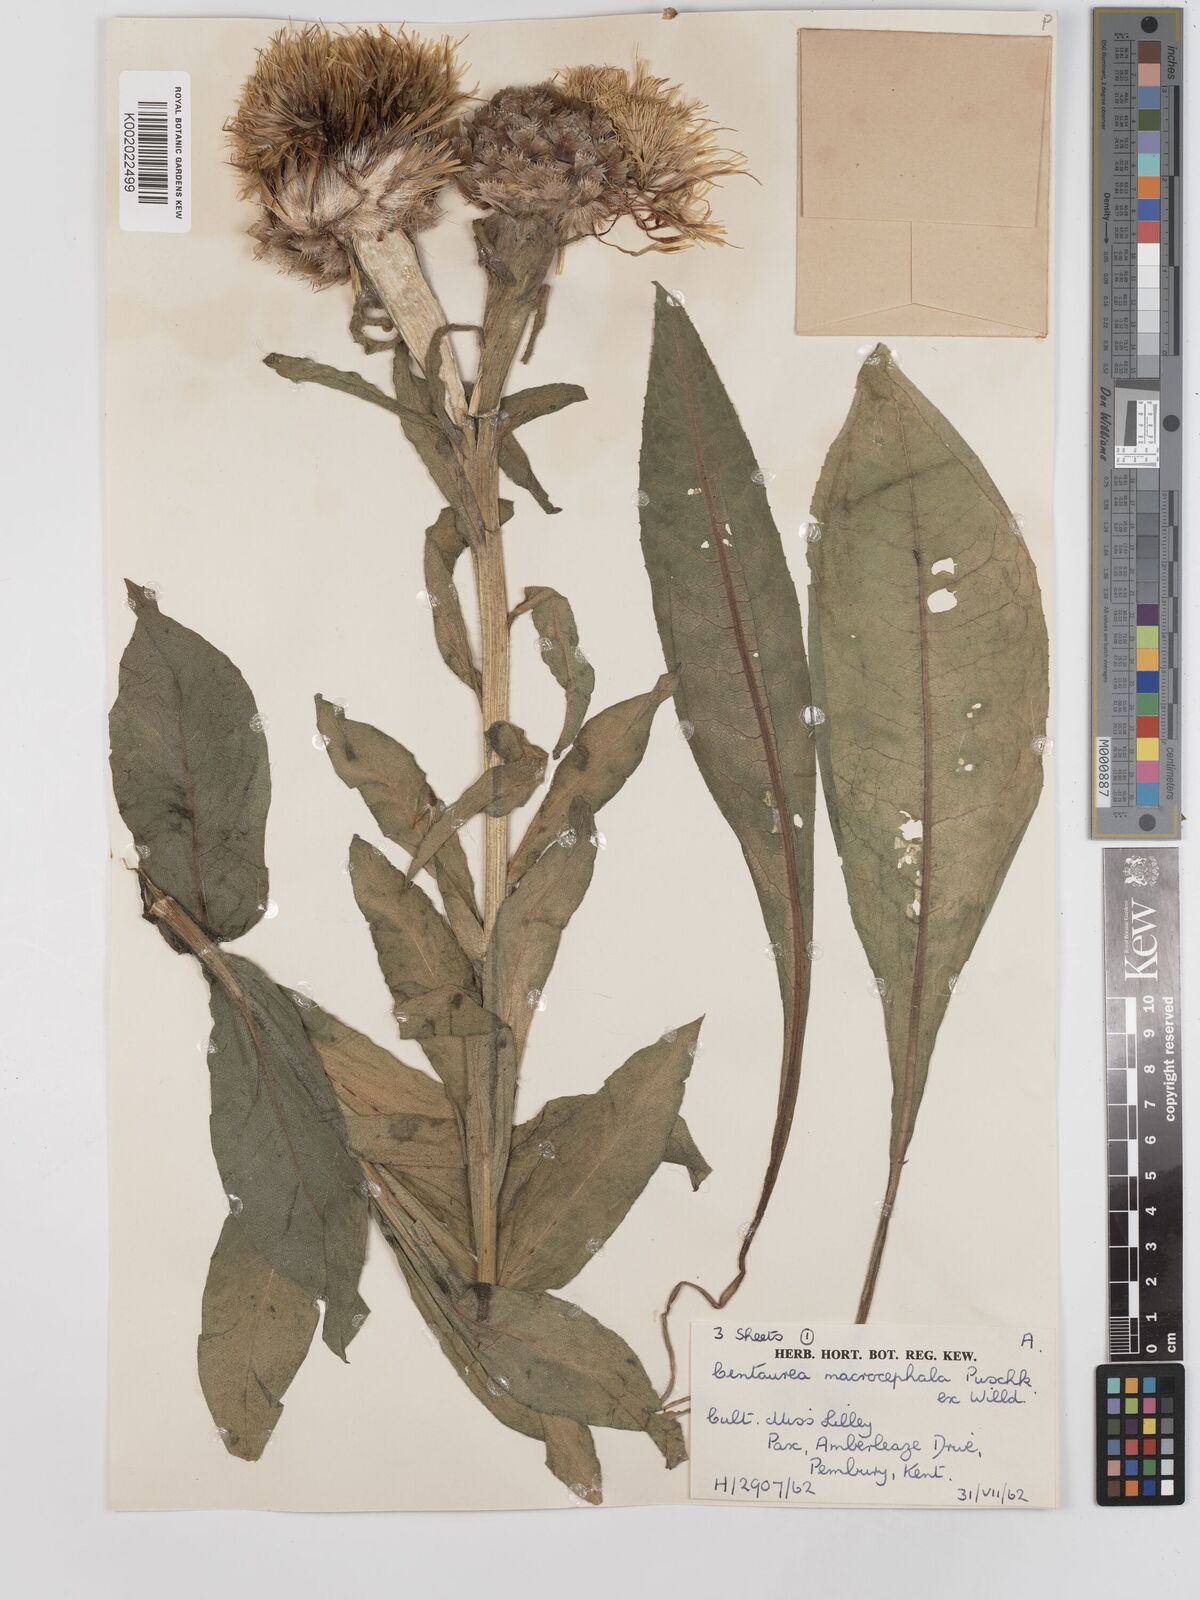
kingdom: Plantae
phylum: Tracheophyta
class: Magnoliopsida
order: Asterales
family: Asteraceae
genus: Centaurea
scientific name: Centaurea macrocephala
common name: Big-head knapweed
